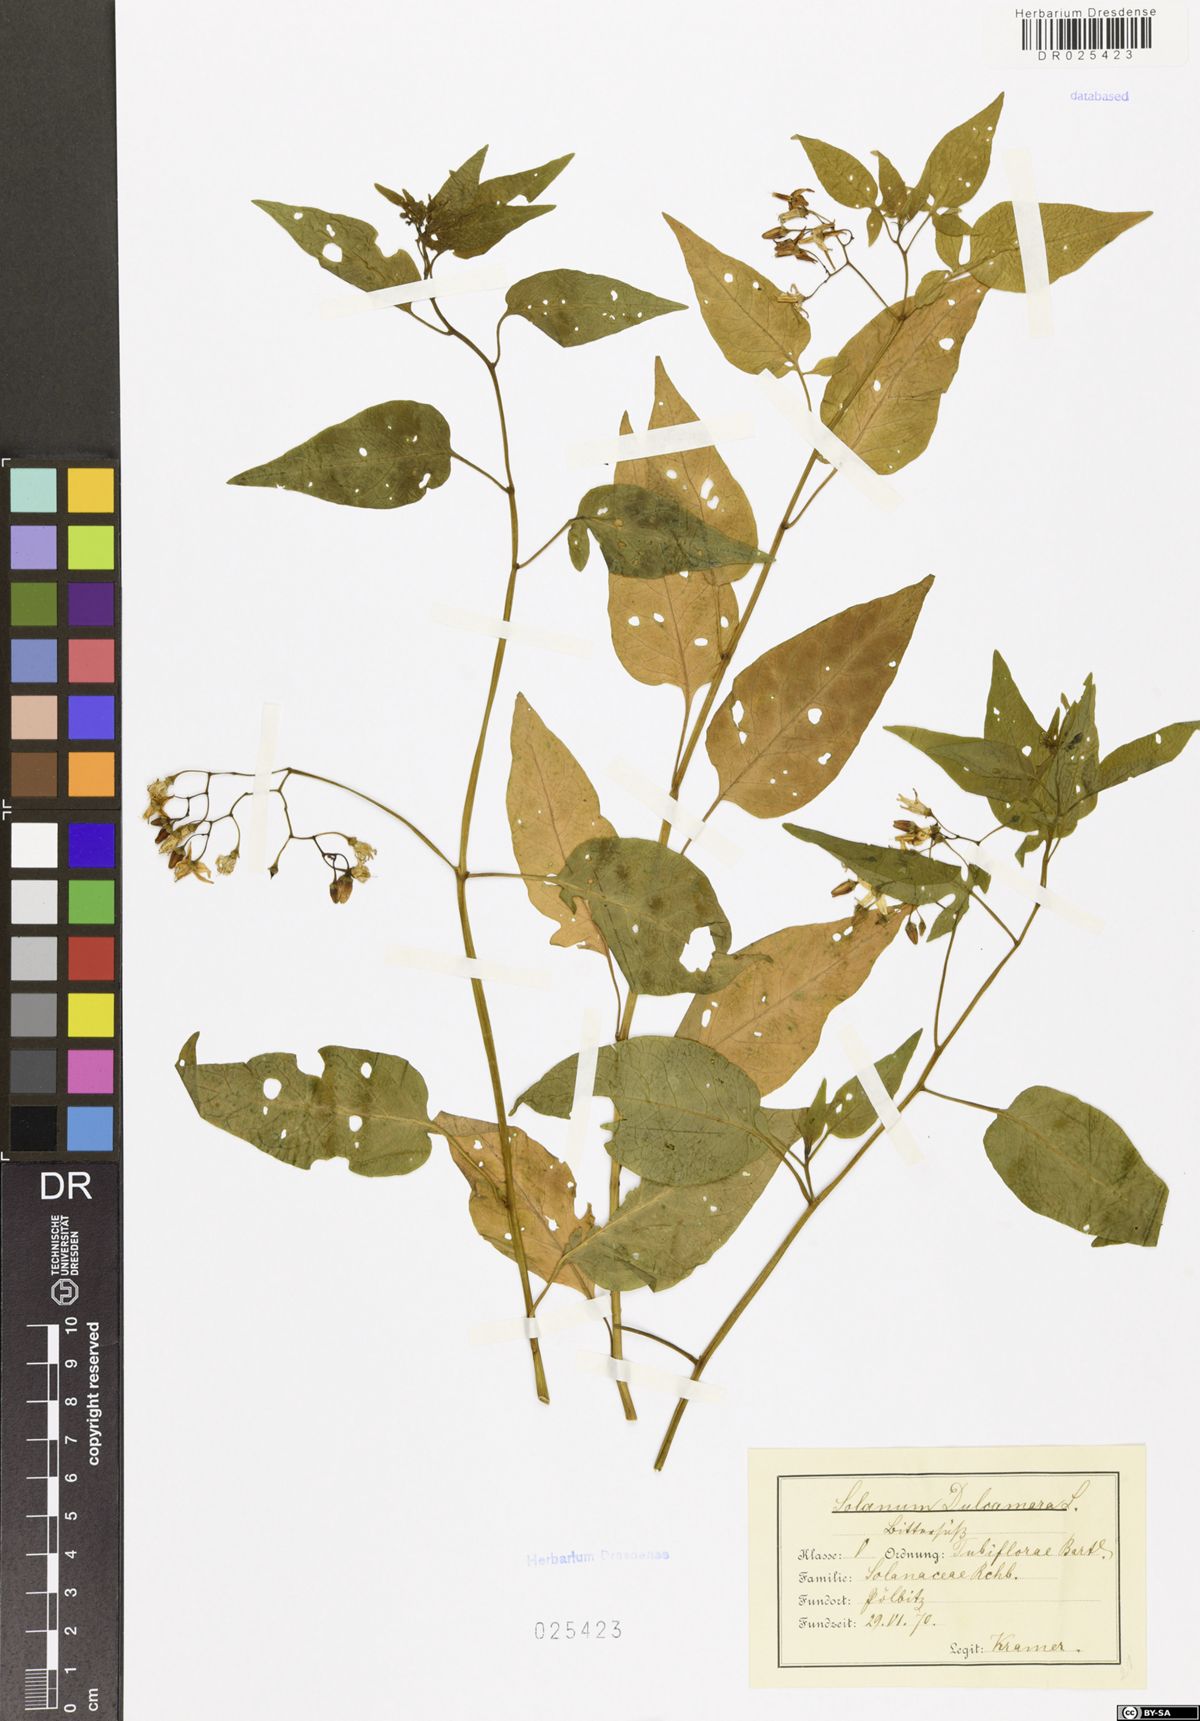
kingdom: Plantae
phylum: Tracheophyta
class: Magnoliopsida
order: Solanales
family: Solanaceae
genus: Solanum
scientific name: Solanum dulcamara
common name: Climbing nightshade
